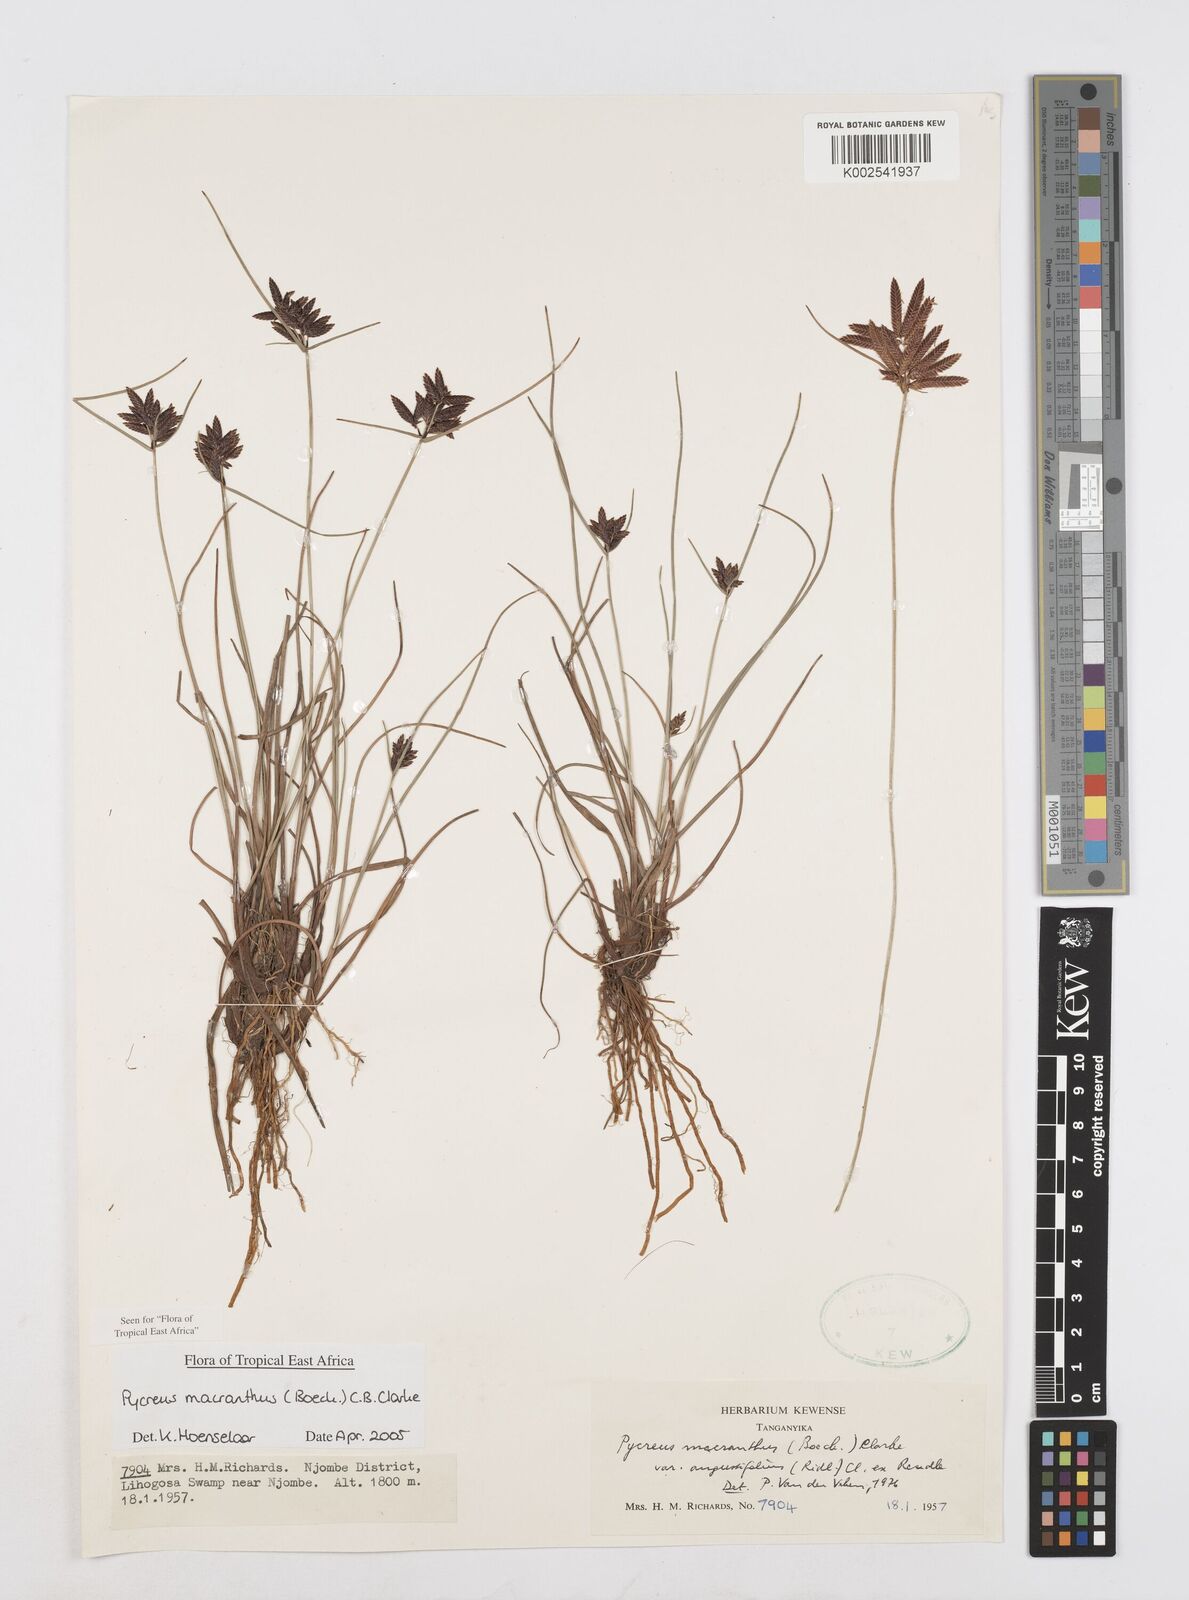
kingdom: Plantae
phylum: Tracheophyta
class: Liliopsida
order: Poales
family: Cyperaceae
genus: Cyperus
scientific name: Cyperus nigricans
